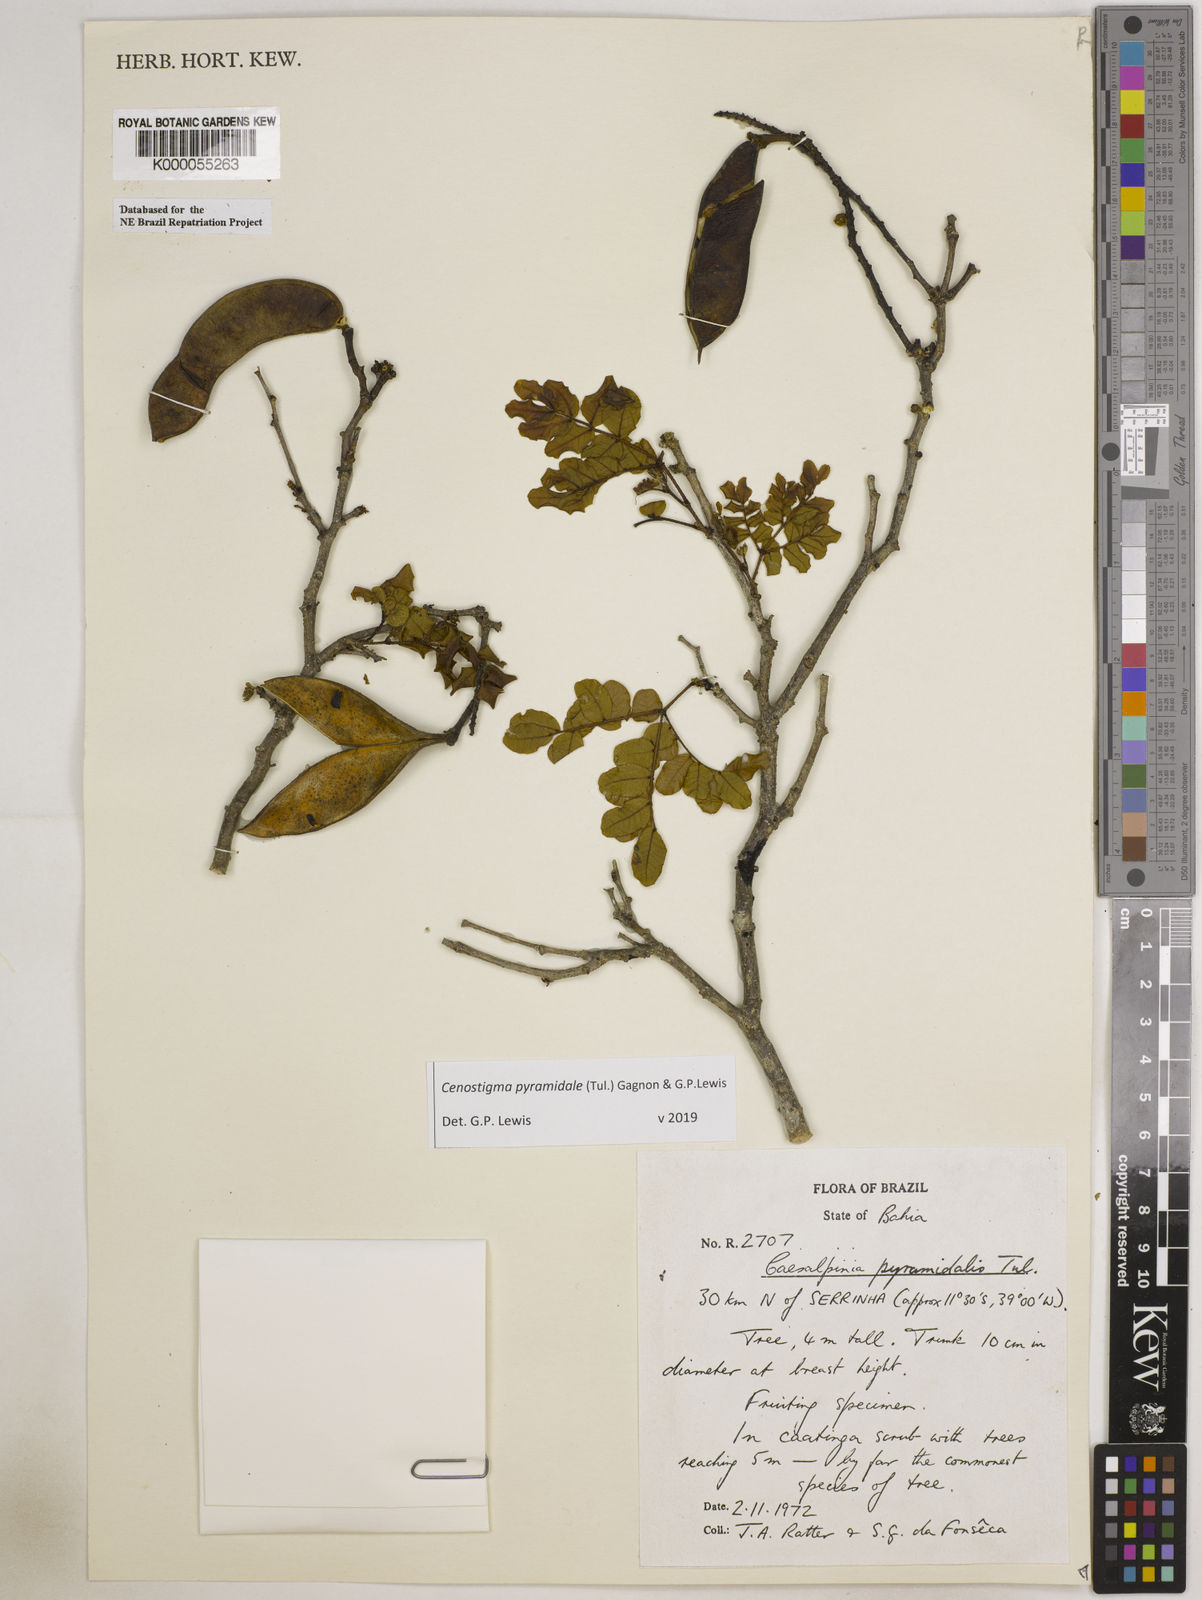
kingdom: Plantae
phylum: Tracheophyta
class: Magnoliopsida
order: Fabales
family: Fabaceae
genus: Cenostigma
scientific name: Cenostigma pyramidale
